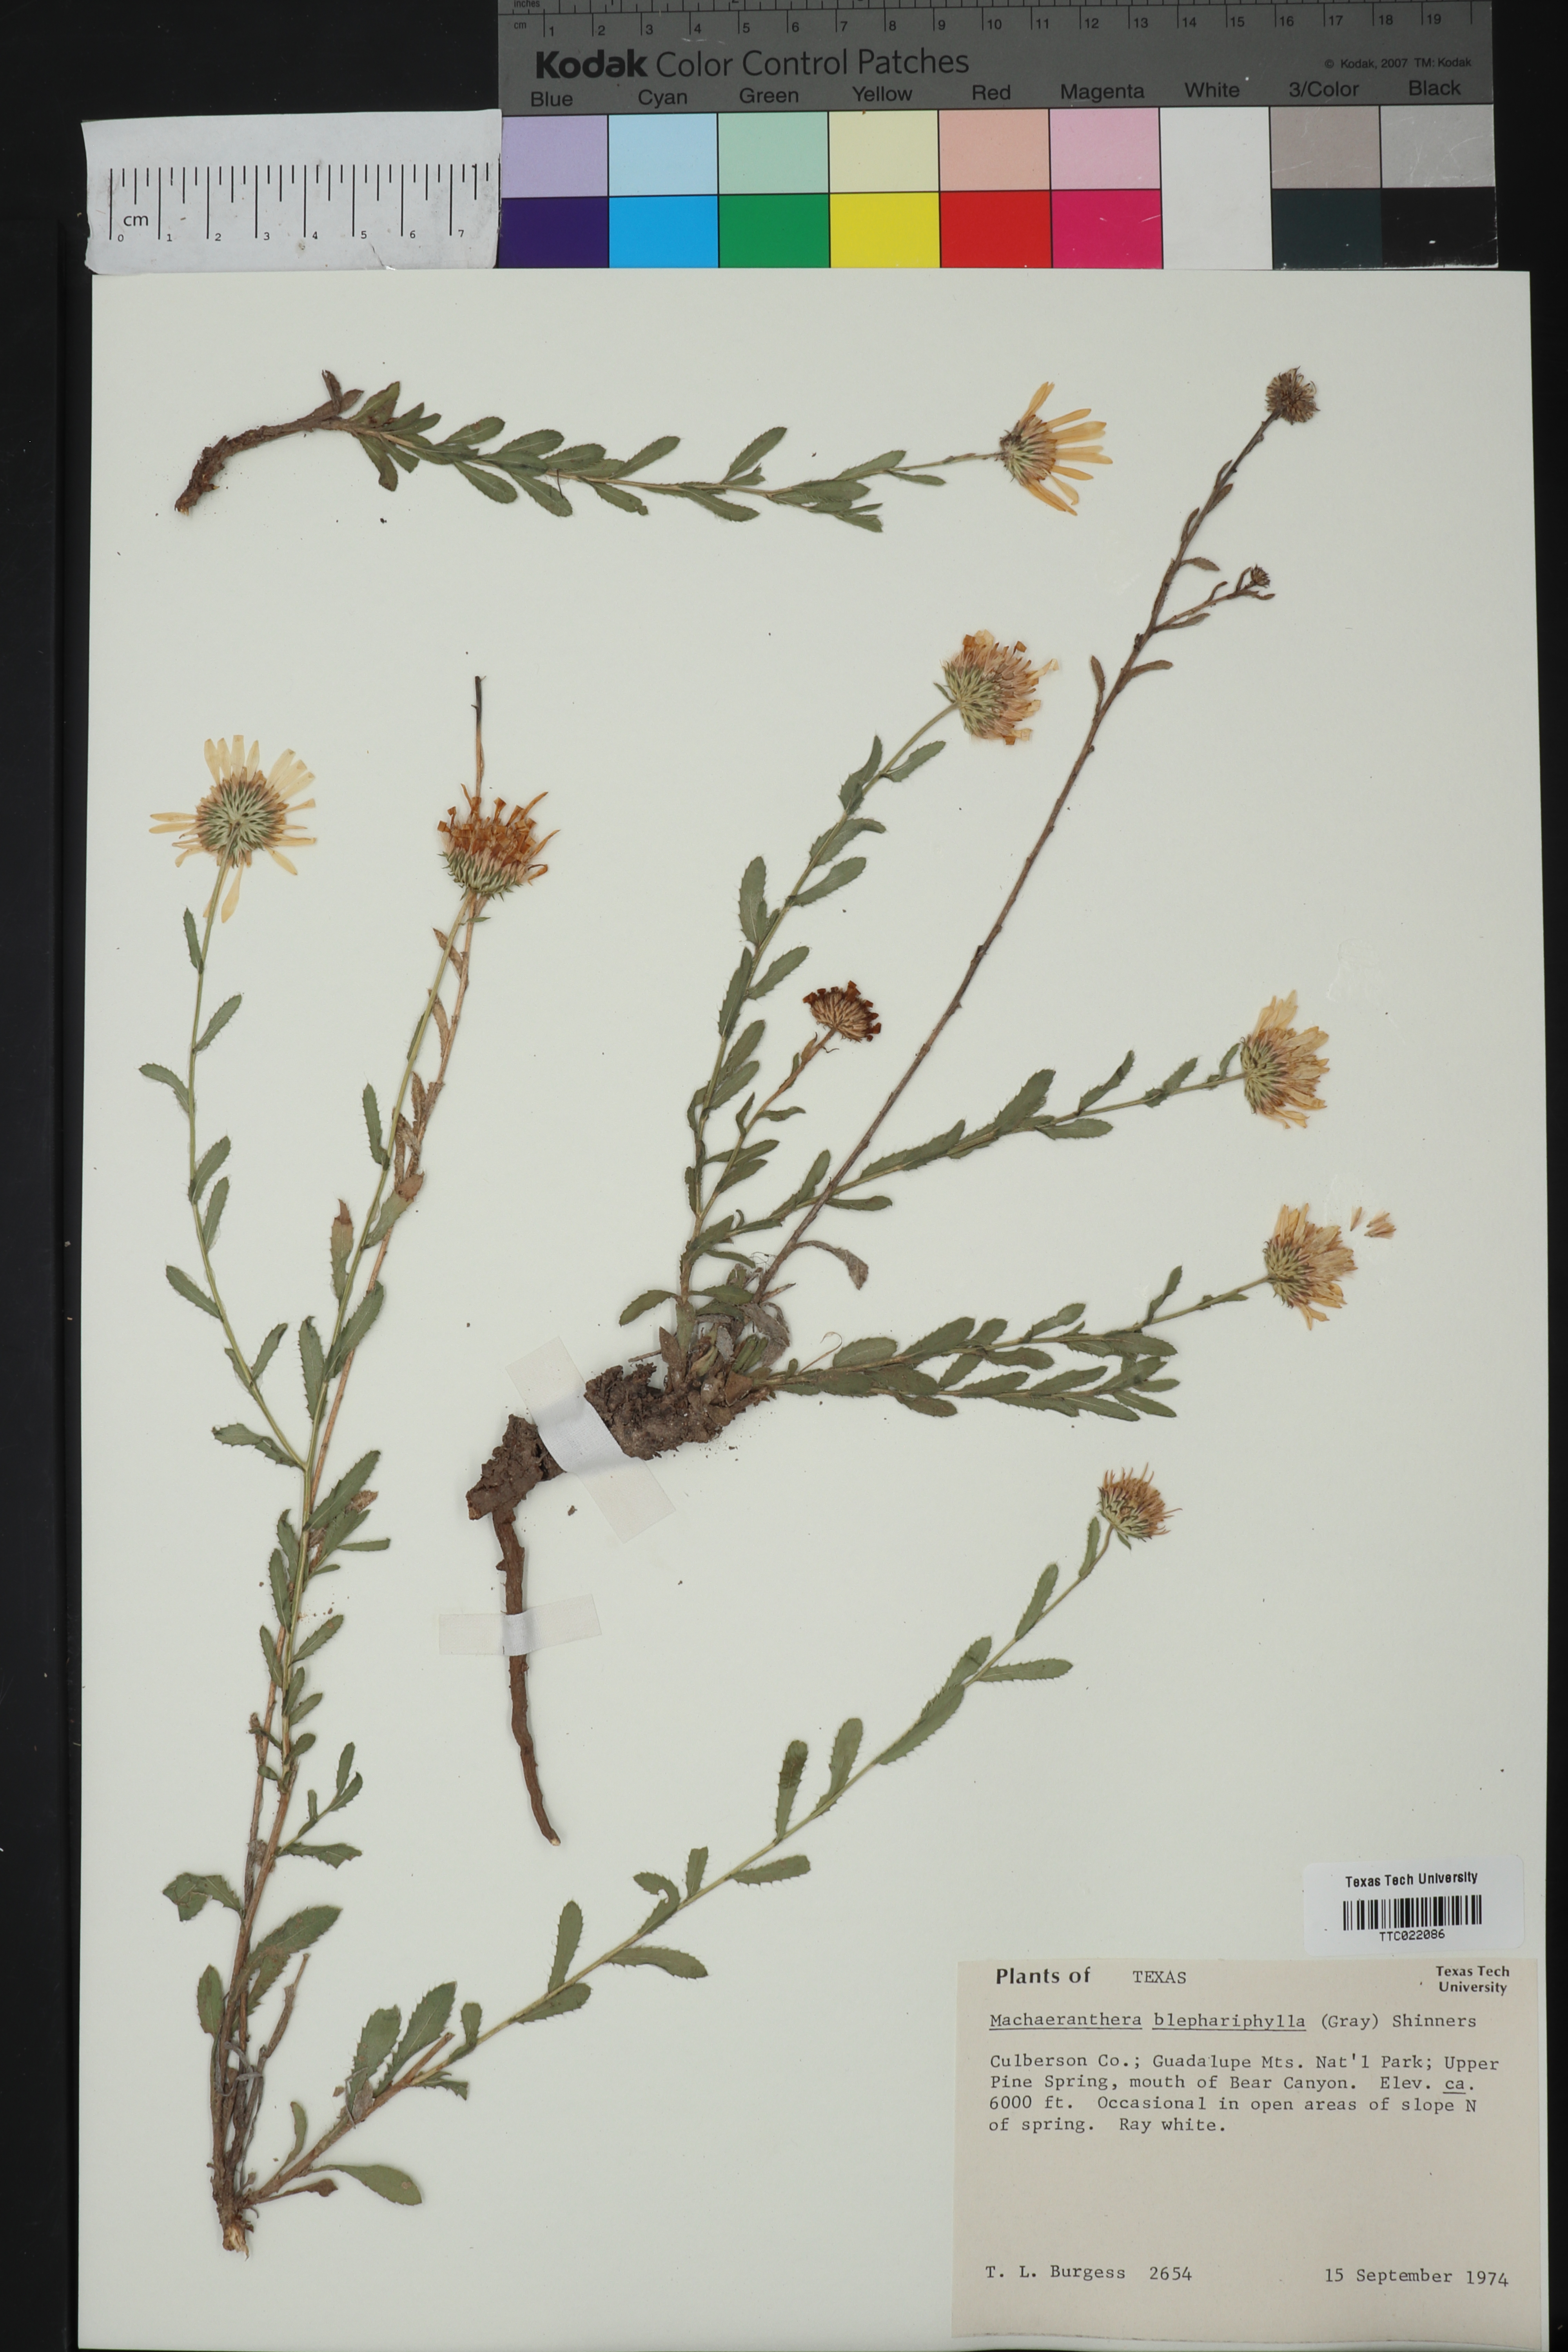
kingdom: Plantae
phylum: Tracheophyta
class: Magnoliopsida
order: Asterales
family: Asteraceae
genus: Xanthisma
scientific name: Xanthisma blephariphyllum
